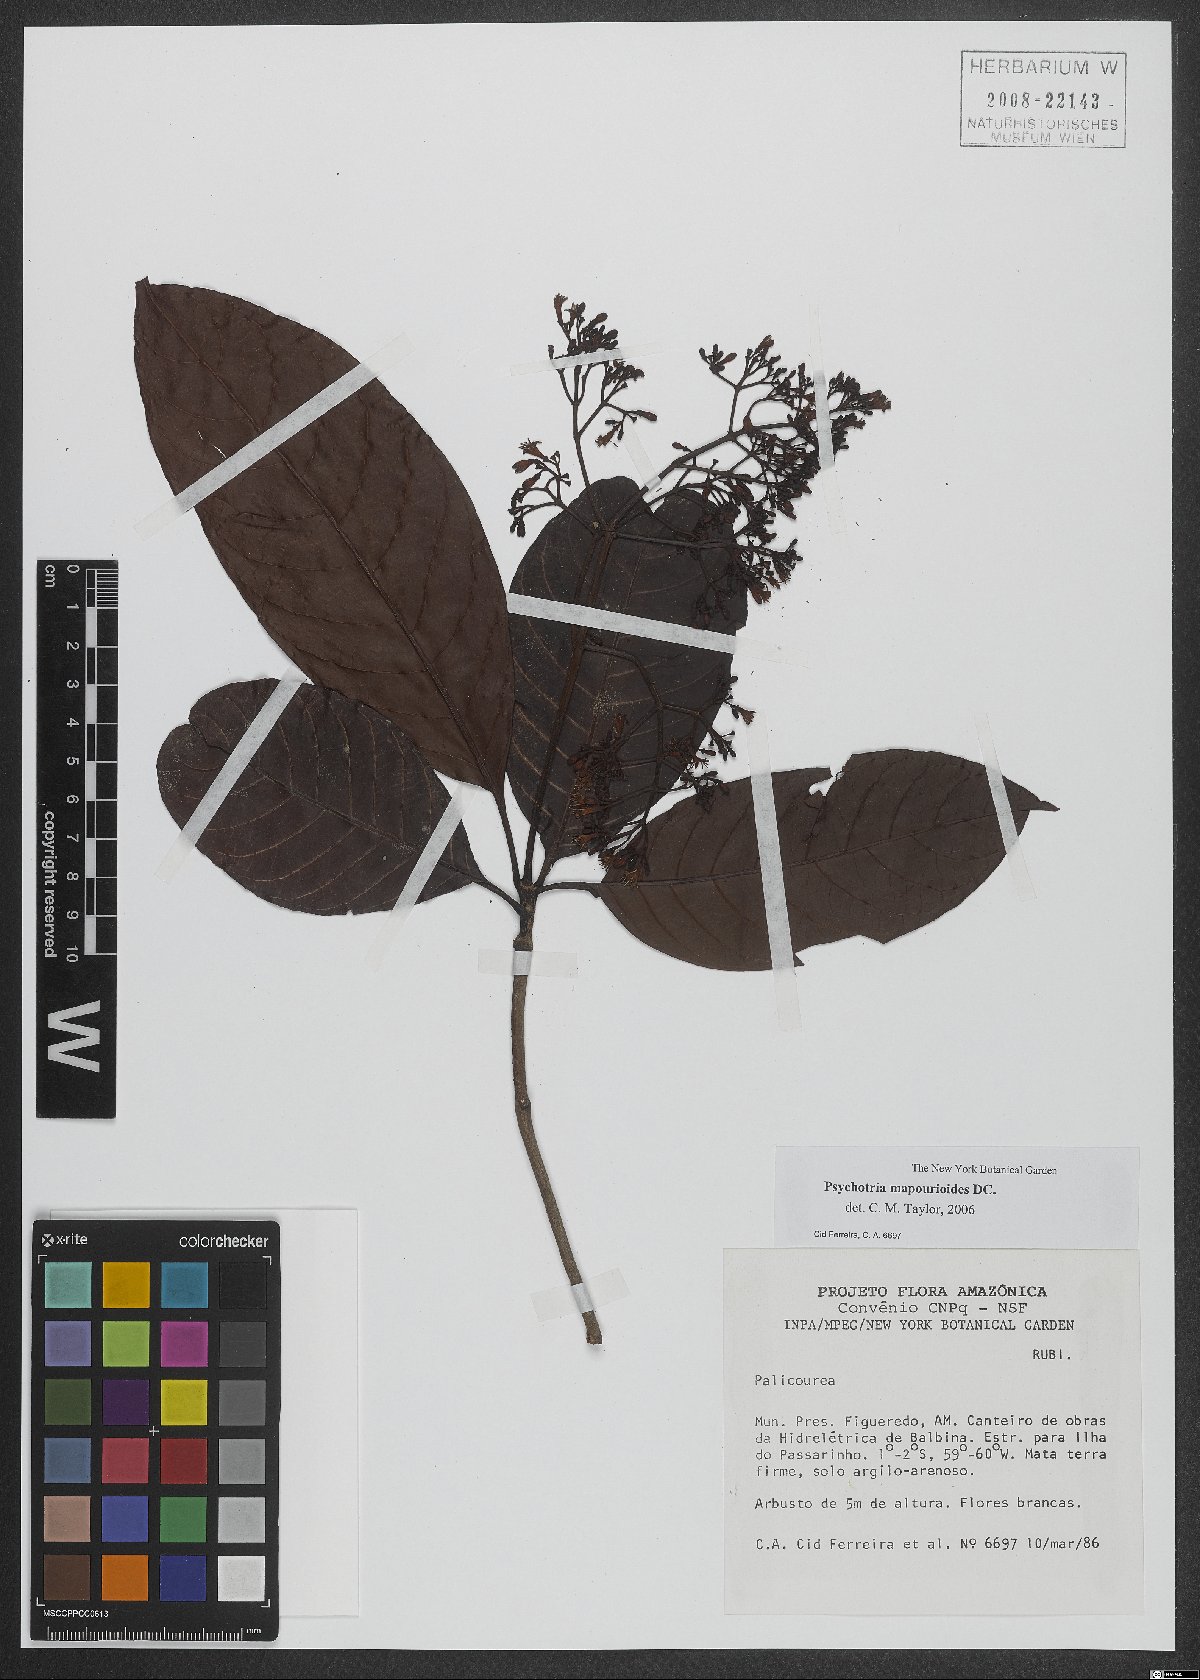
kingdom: Plantae
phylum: Tracheophyta
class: Magnoliopsida
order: Gentianales
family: Rubiaceae
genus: Psychotria
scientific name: Psychotria pedunculosa
